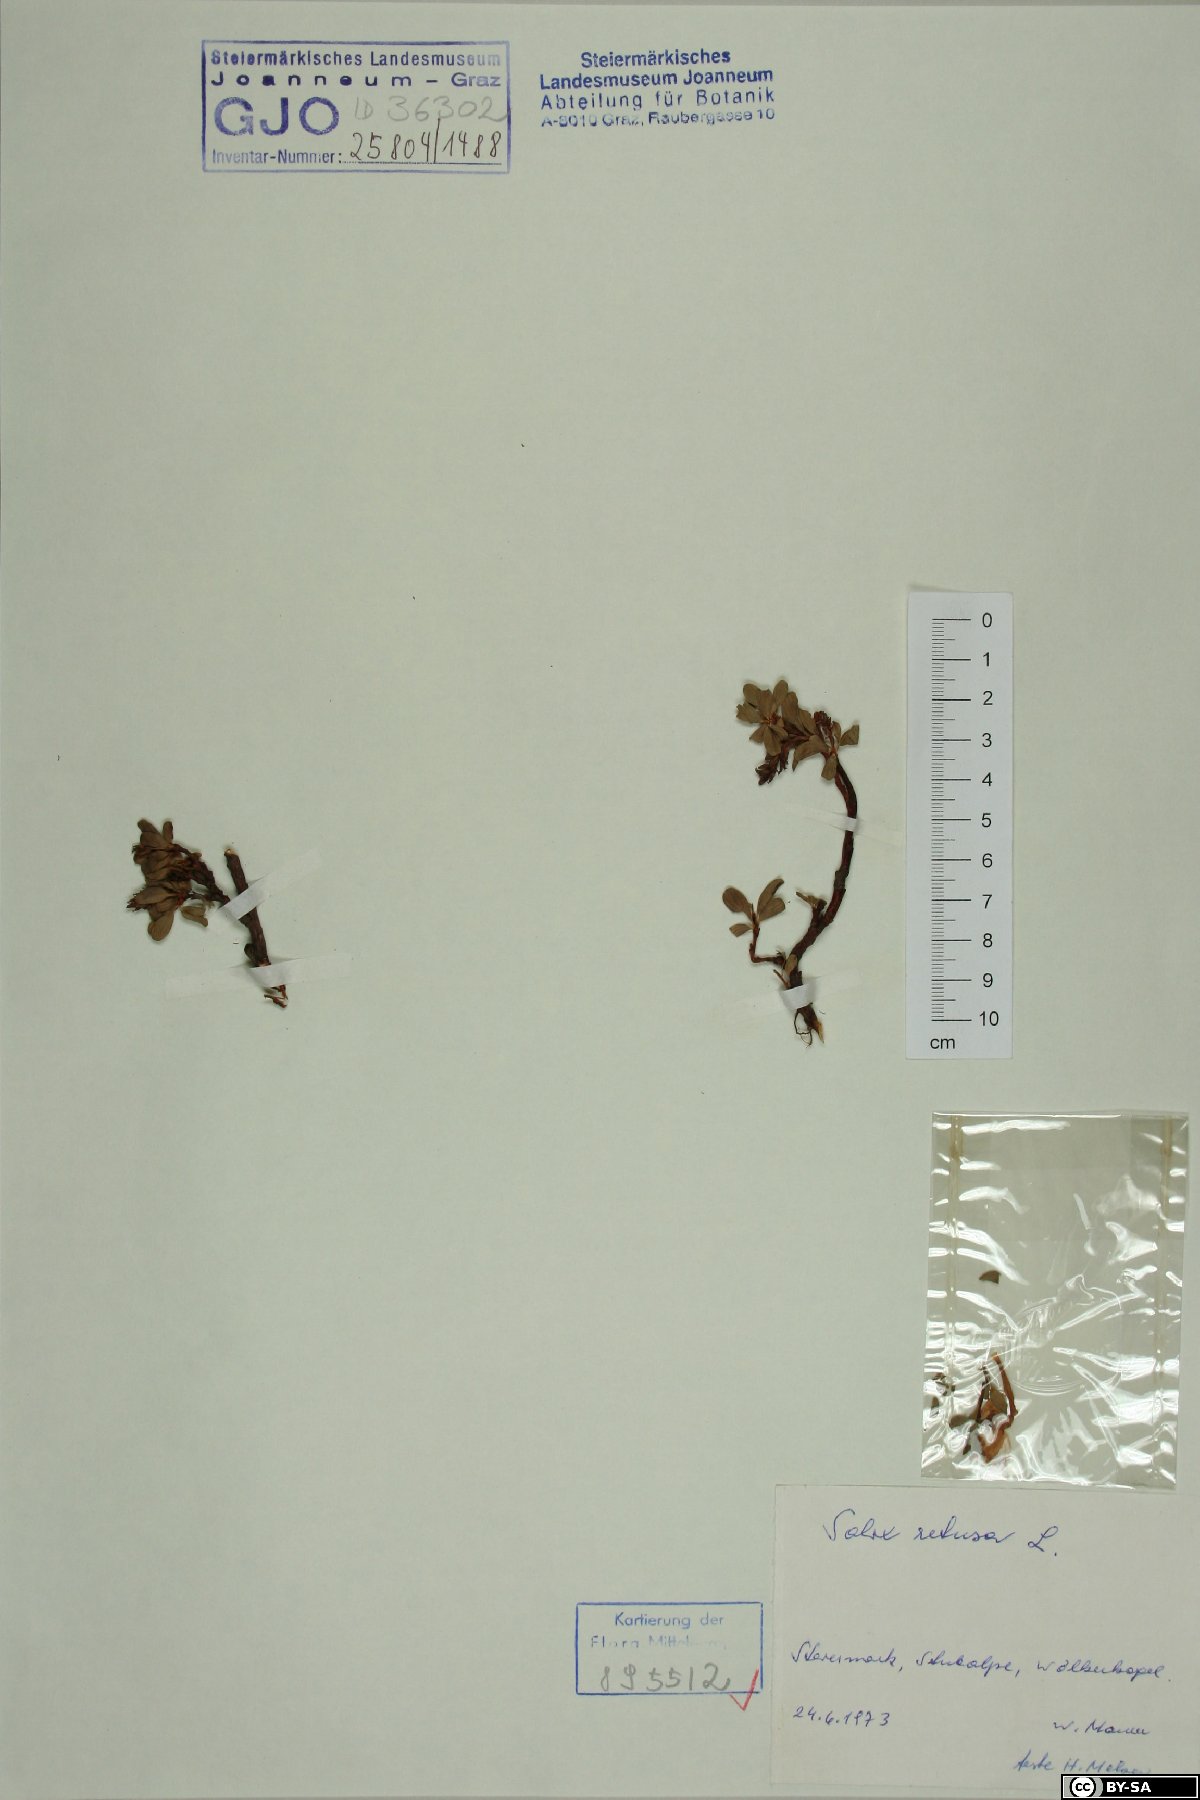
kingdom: Plantae
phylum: Tracheophyta
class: Magnoliopsida
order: Malpighiales
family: Salicaceae
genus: Salix
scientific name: Salix retusa
